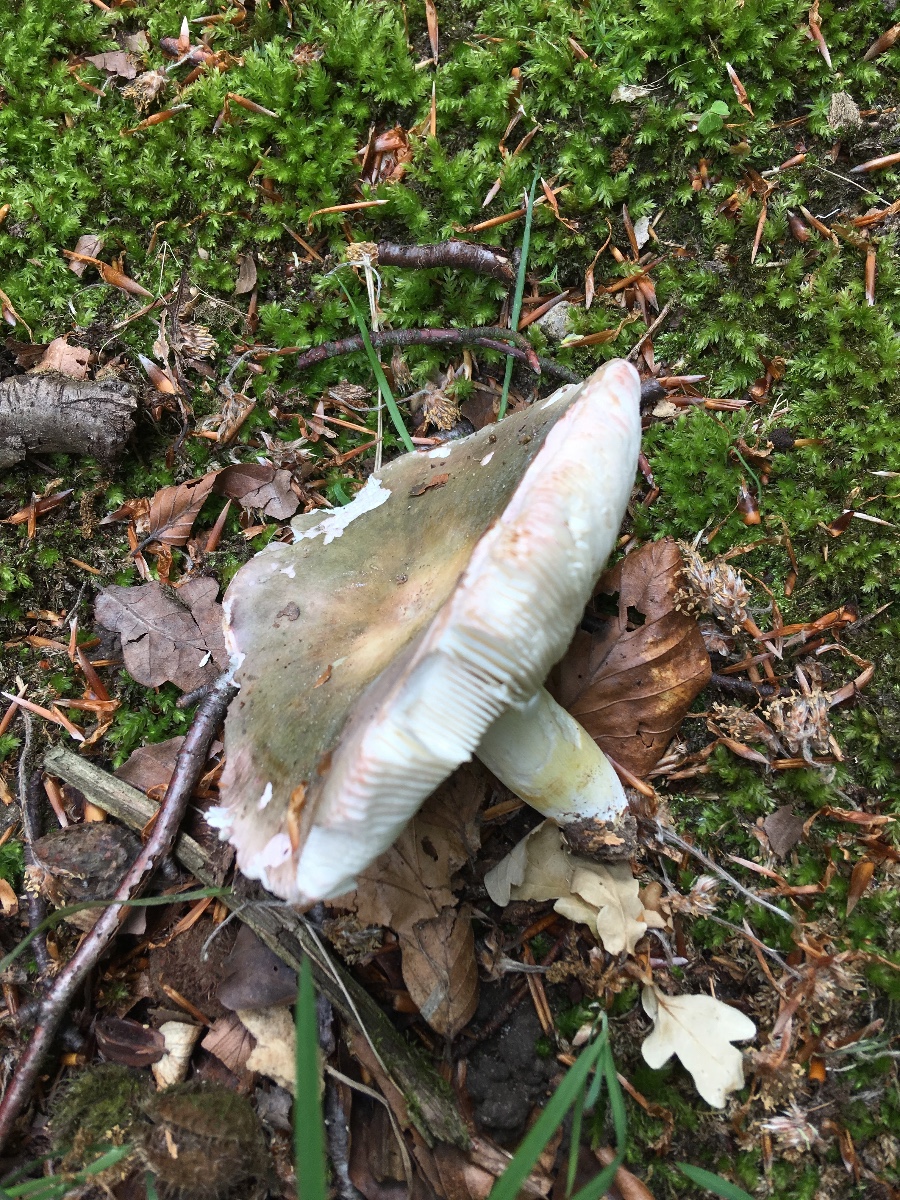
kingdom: Fungi
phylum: Basidiomycota
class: Agaricomycetes
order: Russulales
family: Russulaceae
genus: Russula
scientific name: Russula ionochlora
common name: violetgrøn skørhat
